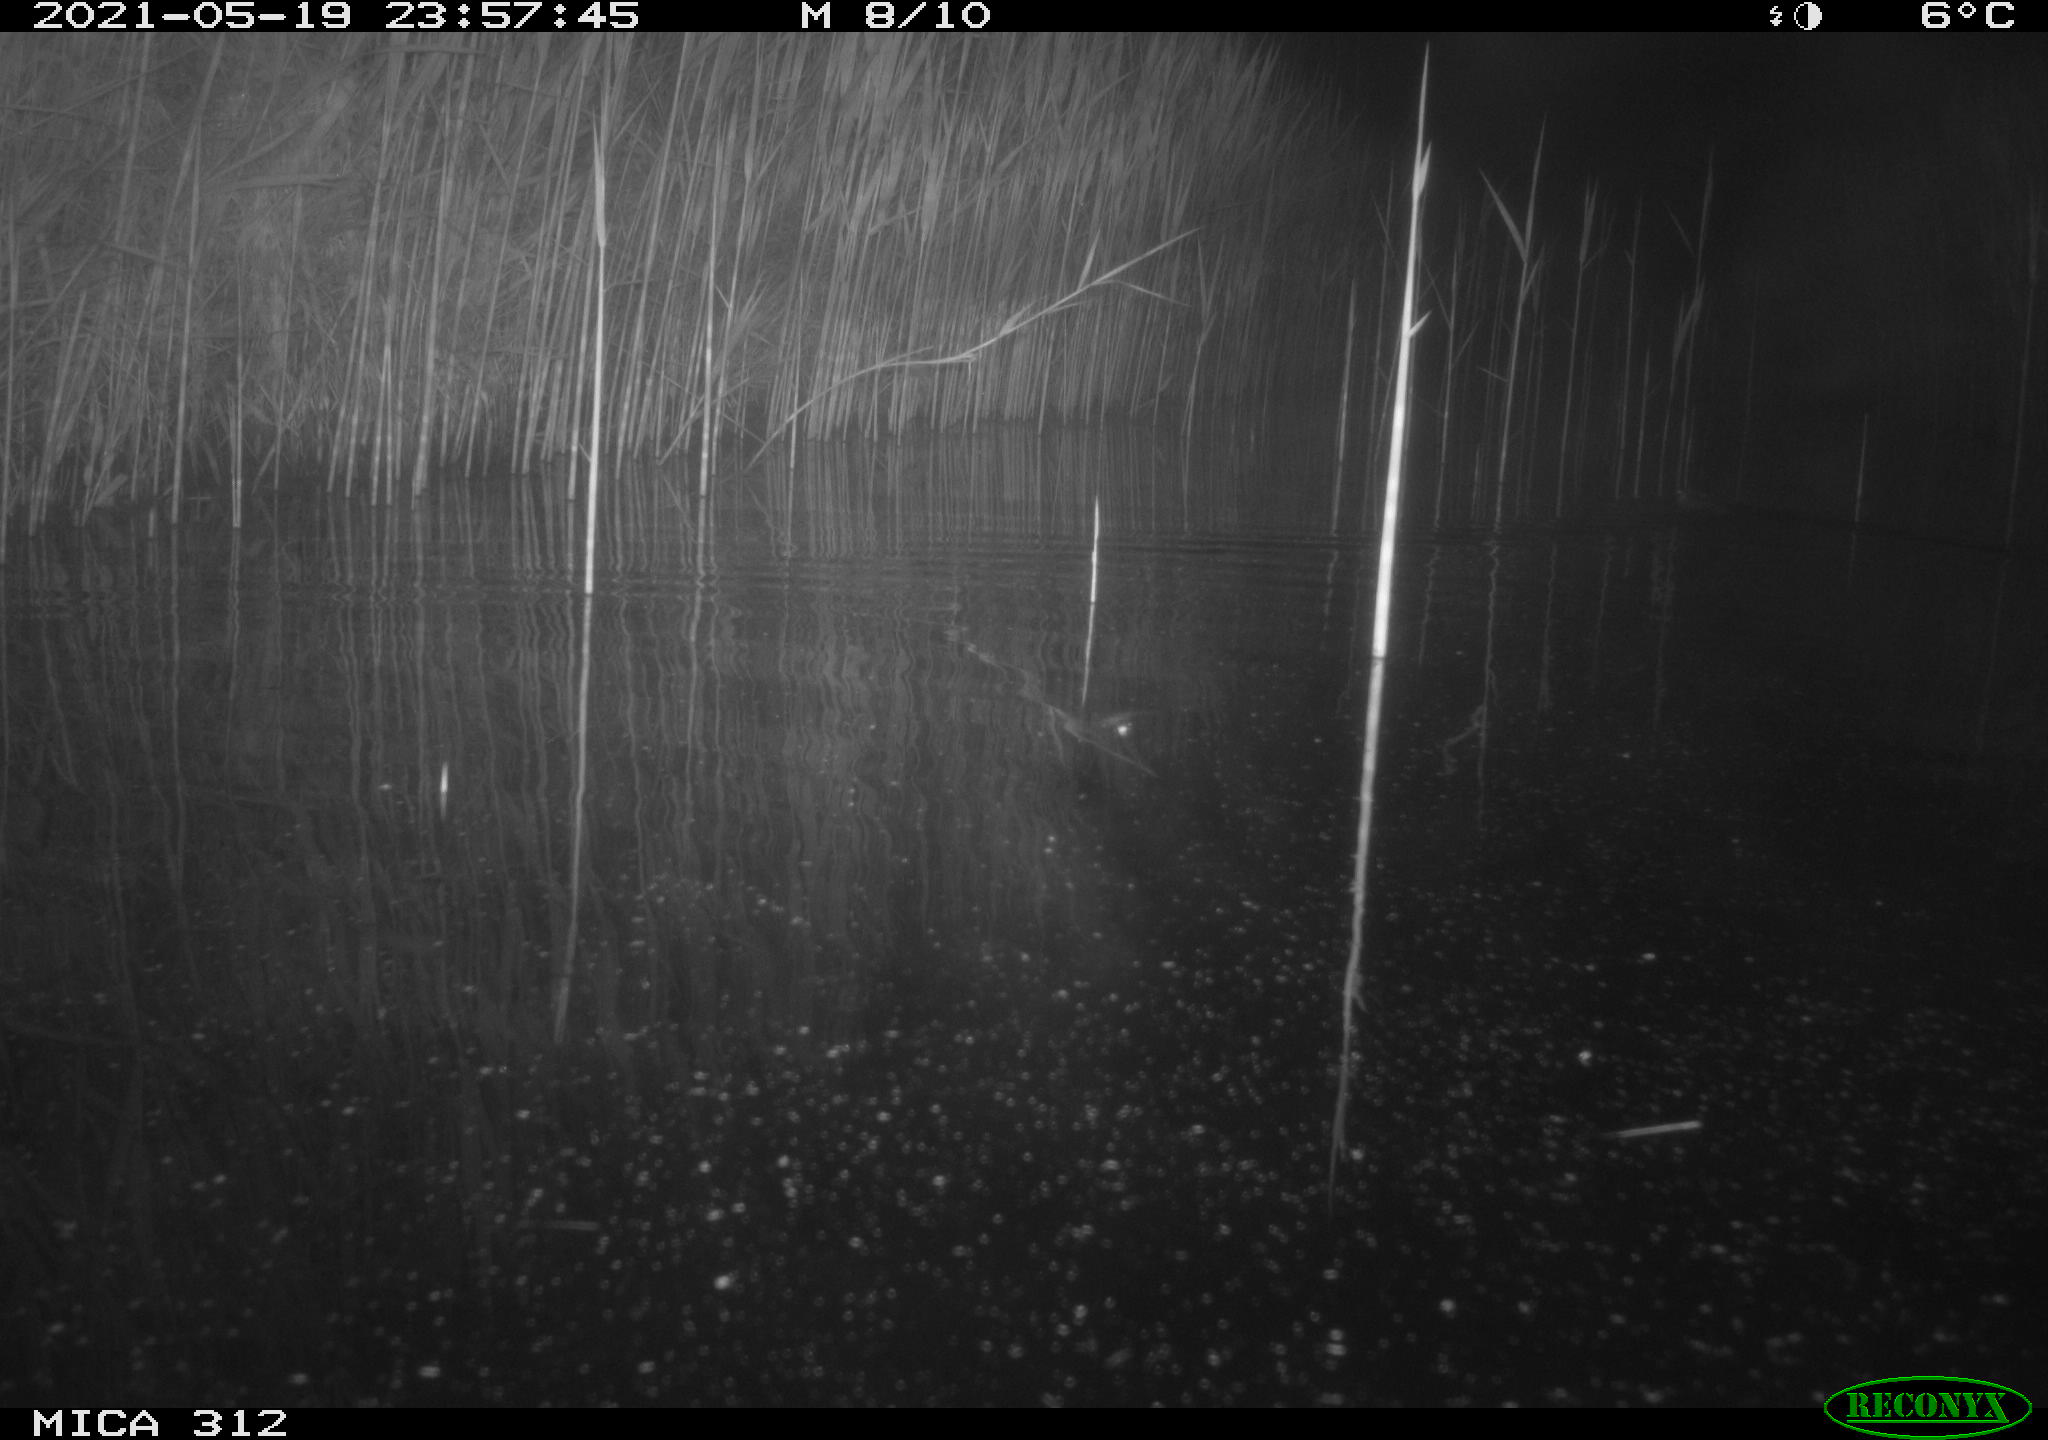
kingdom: Animalia
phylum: Chordata
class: Mammalia
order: Rodentia
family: Muridae
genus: Rattus
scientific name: Rattus norvegicus
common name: Brown rat
